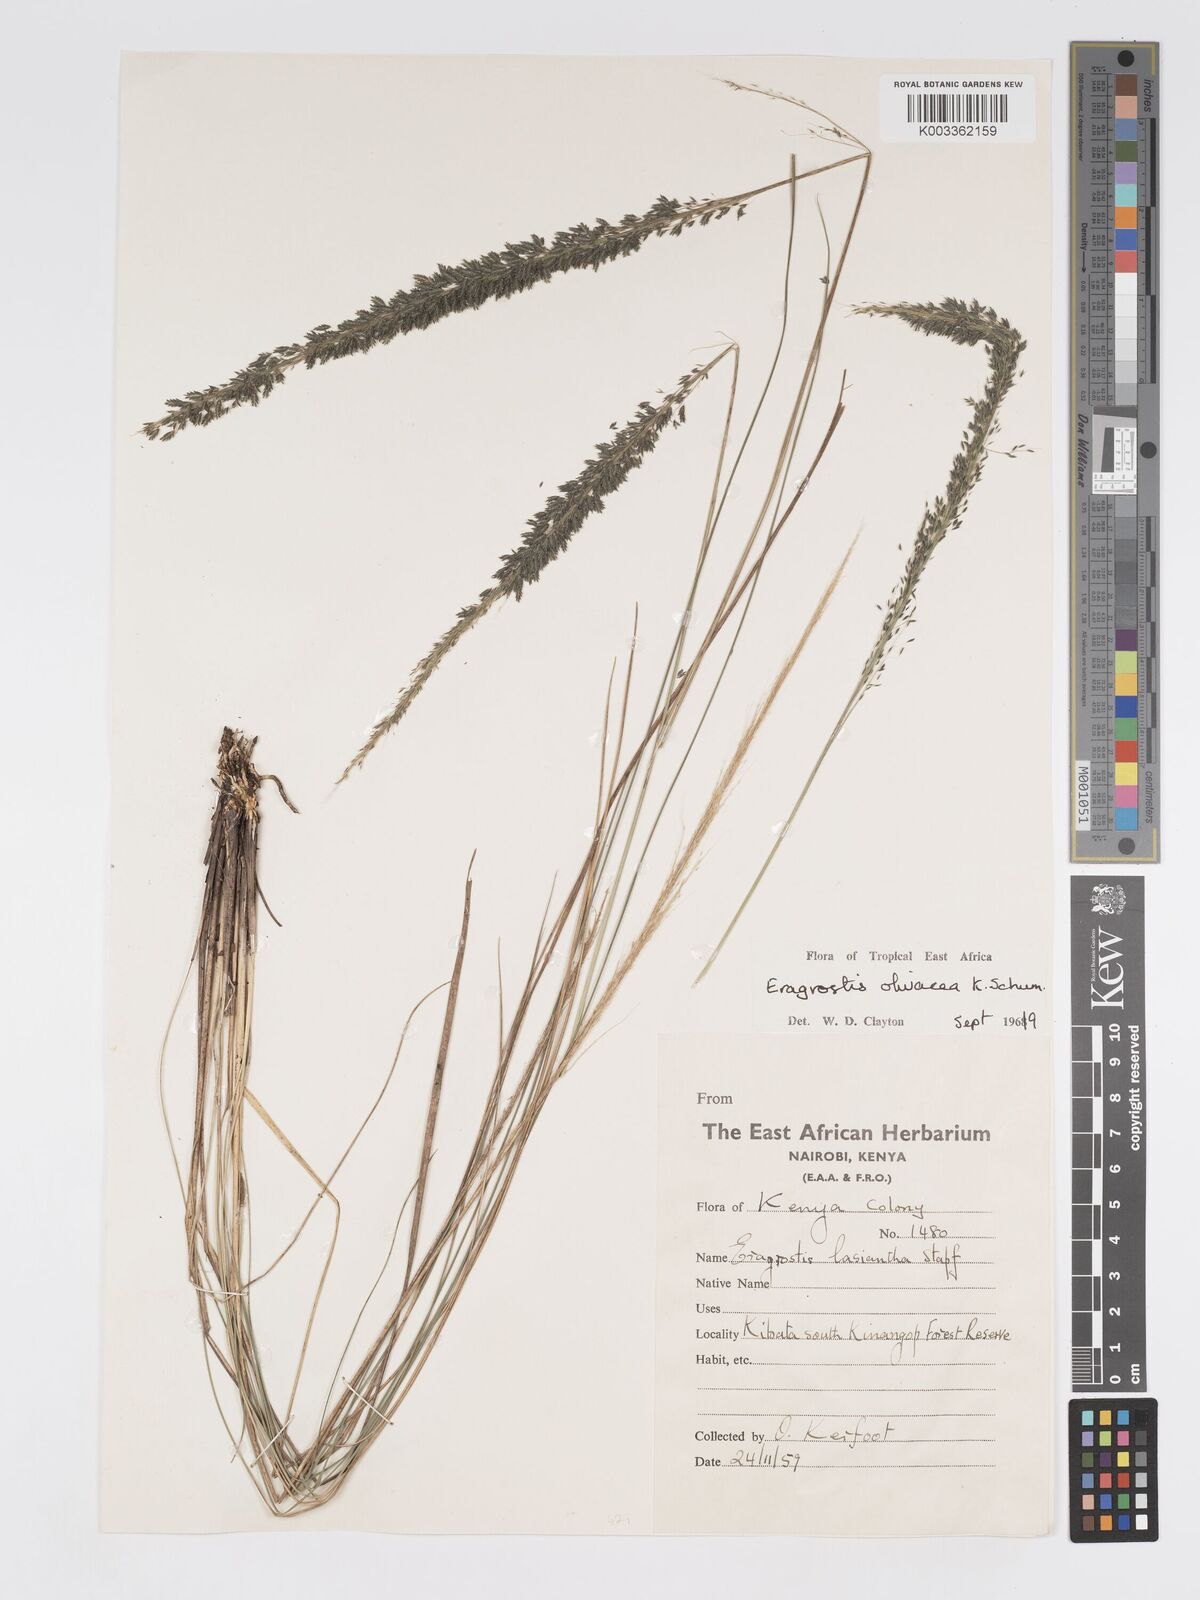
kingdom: Plantae
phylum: Tracheophyta
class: Liliopsida
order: Poales
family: Poaceae
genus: Eragrostis
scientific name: Eragrostis olivacea
